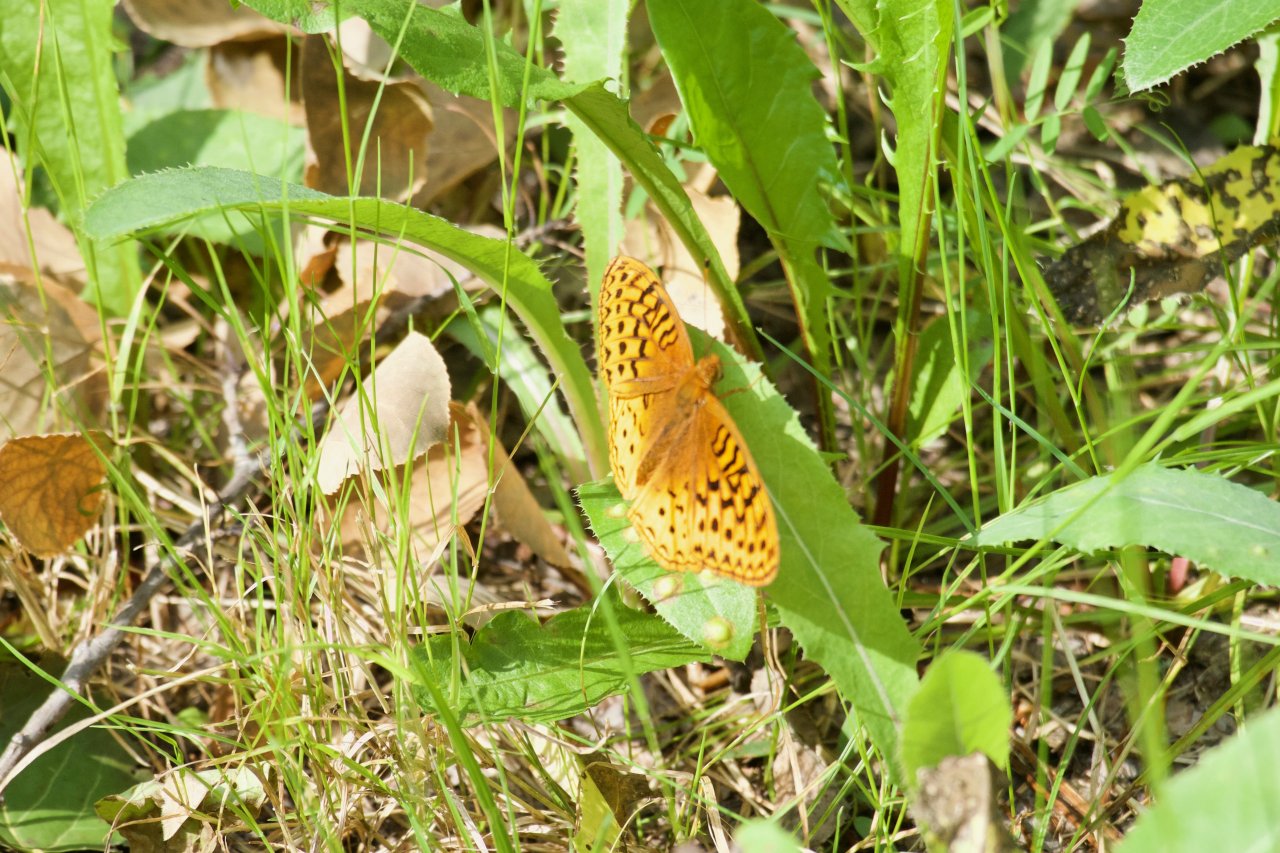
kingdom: Animalia
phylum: Arthropoda
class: Insecta
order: Lepidoptera
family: Nymphalidae
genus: Speyeria
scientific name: Speyeria atlantis
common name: Northwestern Fritillary
